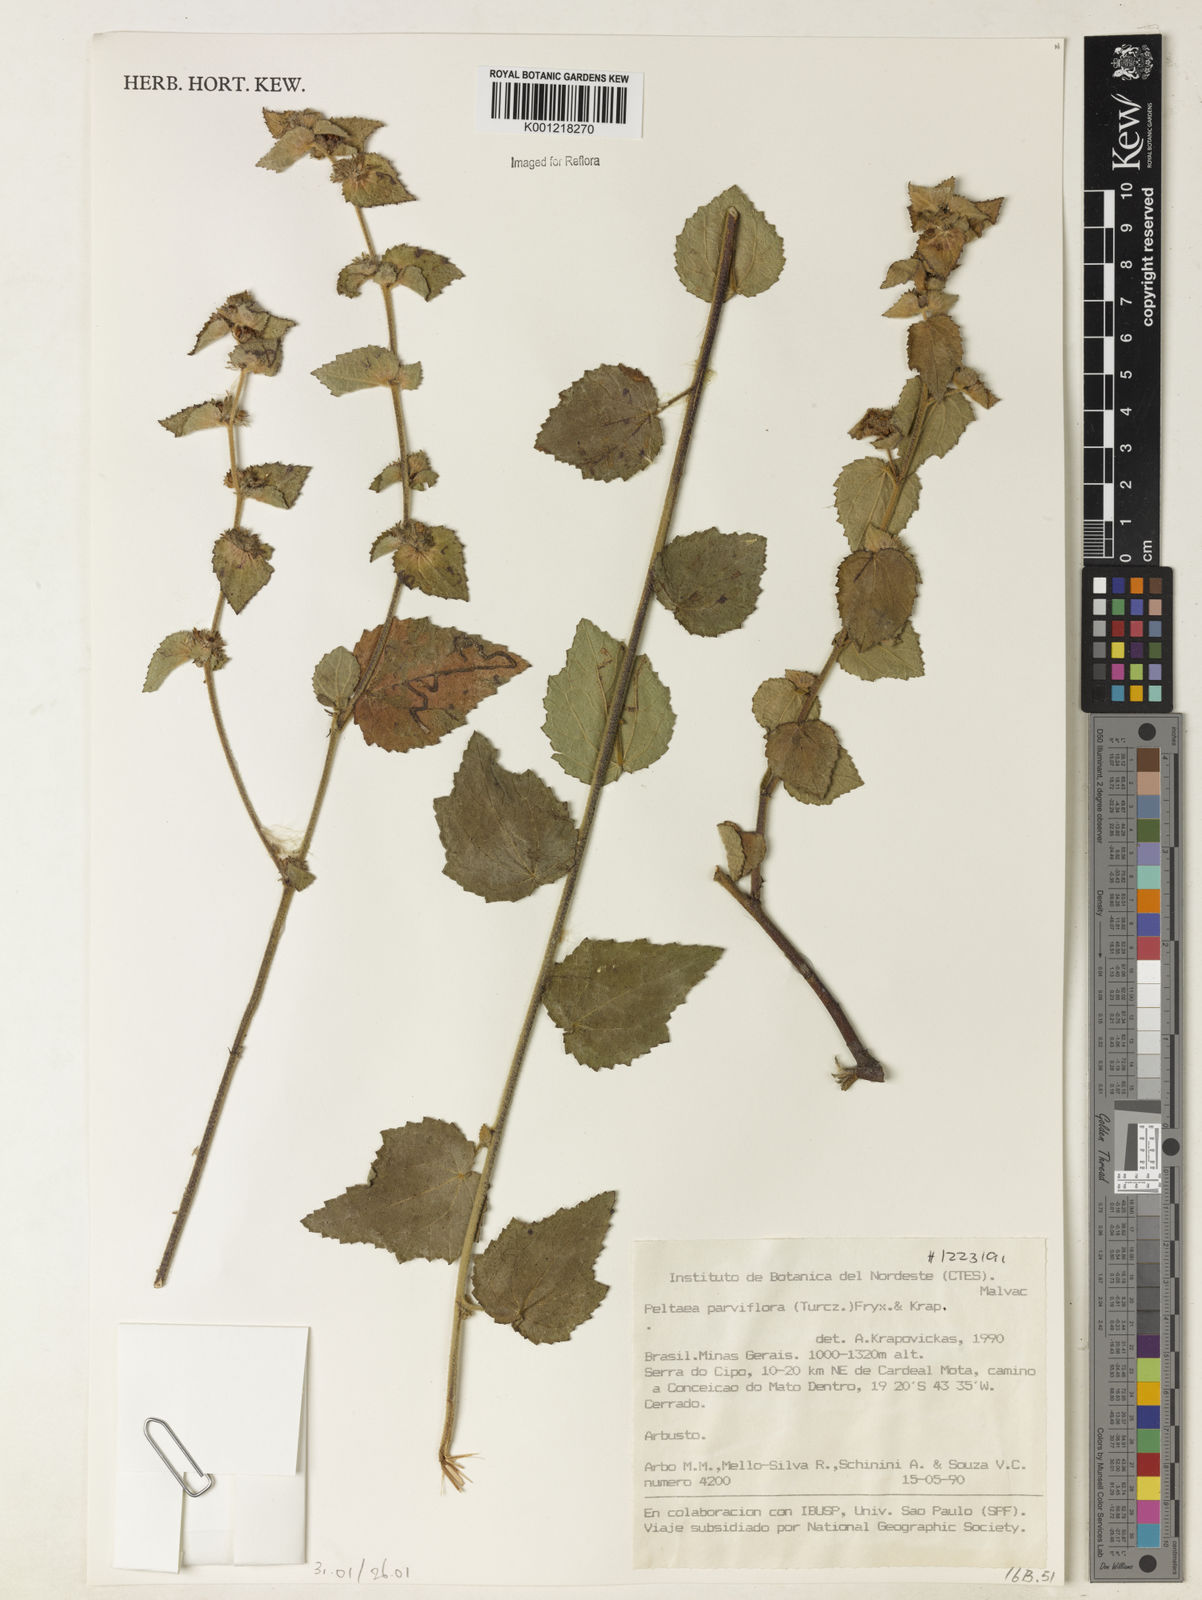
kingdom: Plantae
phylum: Tracheophyta
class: Magnoliopsida
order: Malvales
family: Malvaceae
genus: Peltaea
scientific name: Peltaea parviflora
